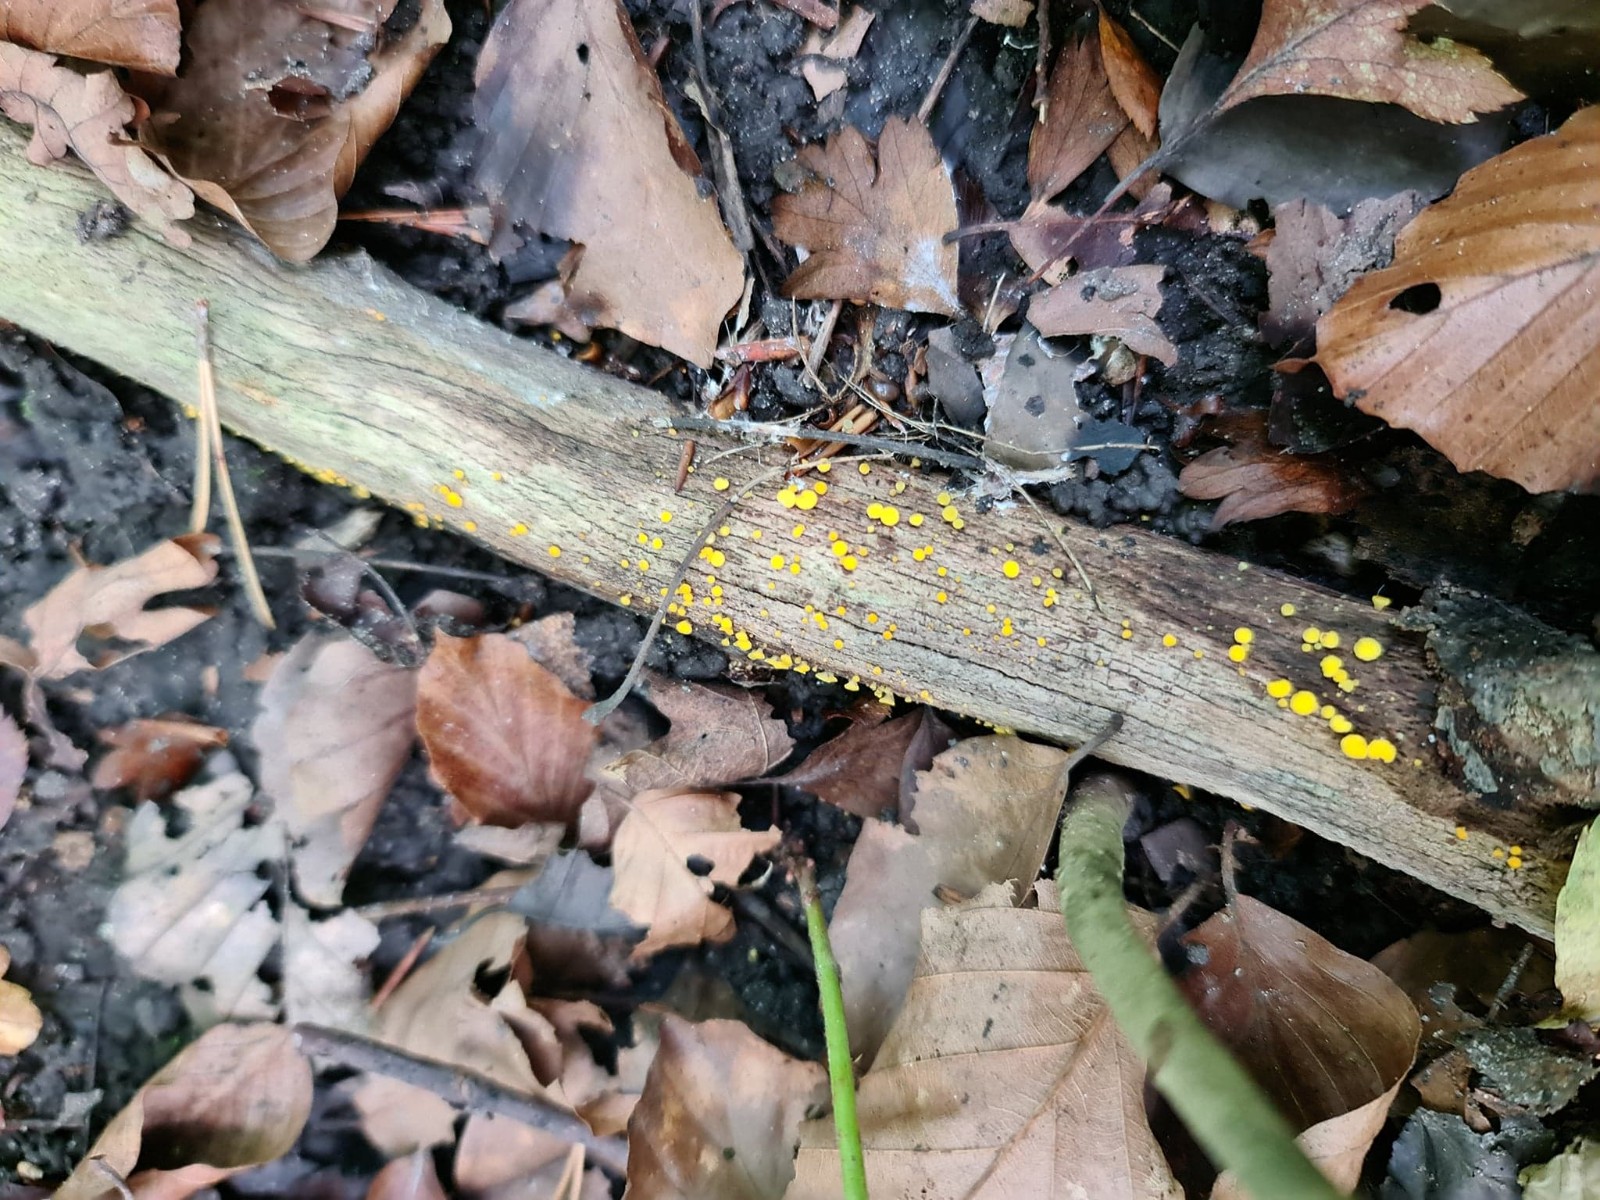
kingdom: Fungi
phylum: Ascomycota
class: Leotiomycetes
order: Helotiales
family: Pezizellaceae
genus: Calycina
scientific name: Calycina citrina
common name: almindelig gulskive
